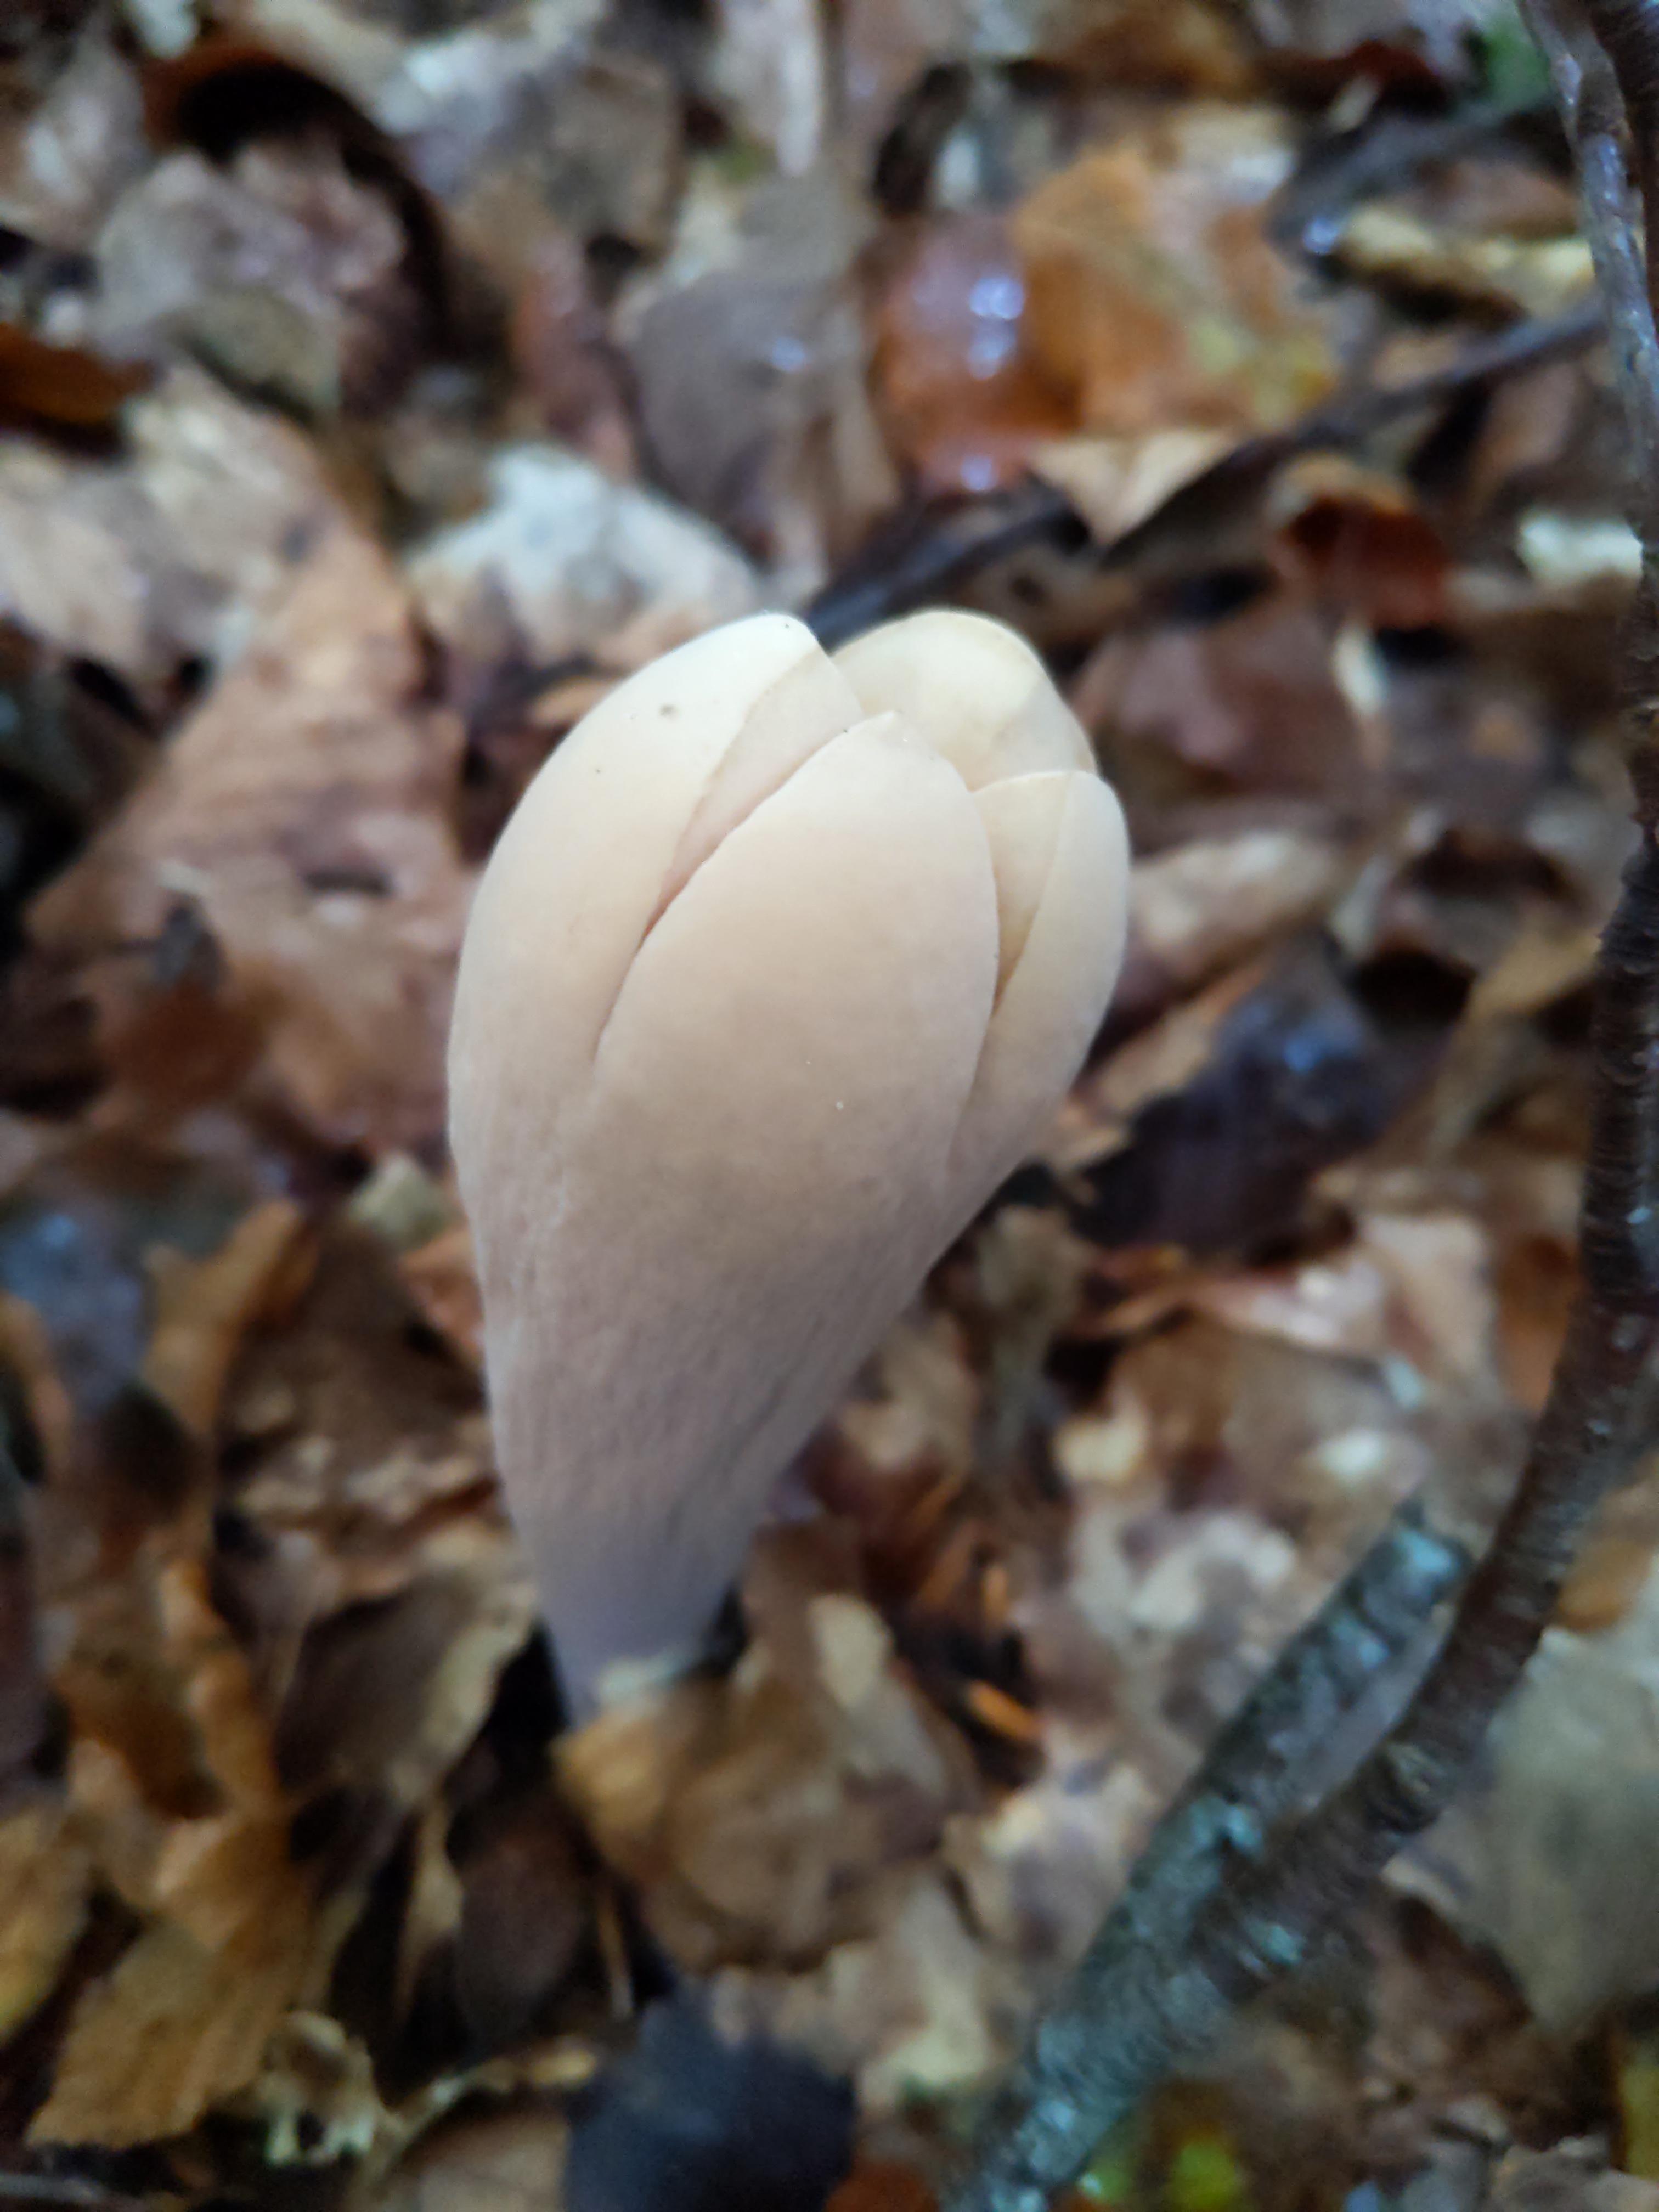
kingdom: Fungi
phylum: Basidiomycota
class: Agaricomycetes
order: Gomphales
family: Clavariadelphaceae
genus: Clavariadelphus
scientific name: Clavariadelphus pistillaris
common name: herkules-kæmpekølle
